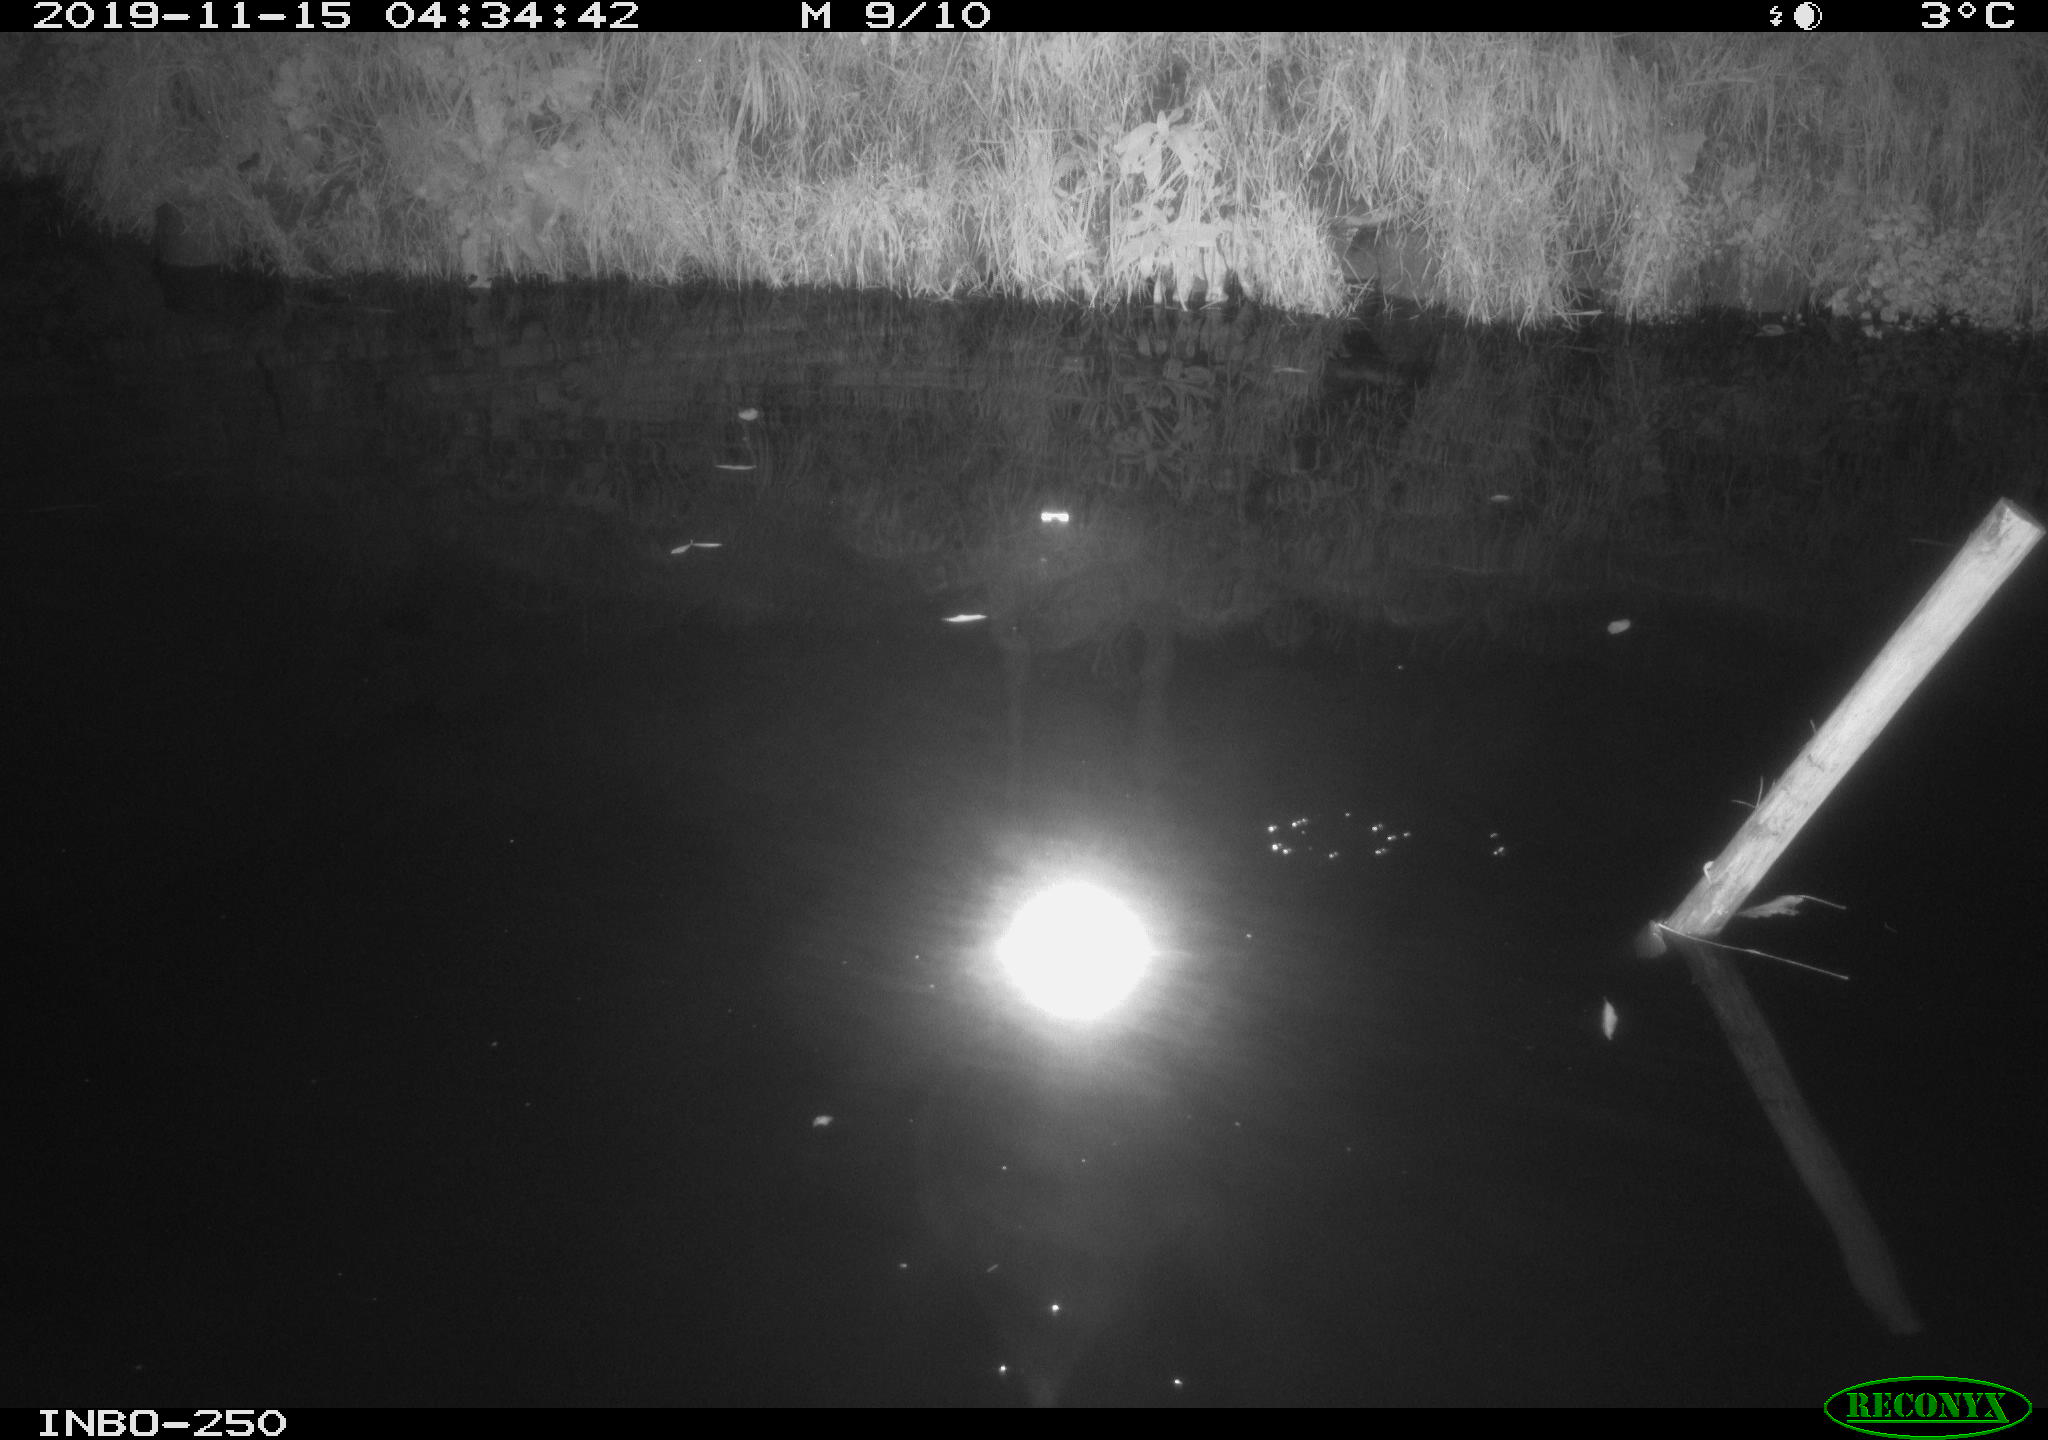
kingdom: Animalia
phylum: Chordata
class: Aves
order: Anseriformes
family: Anatidae
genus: Anas
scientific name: Anas platyrhynchos
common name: Mallard
